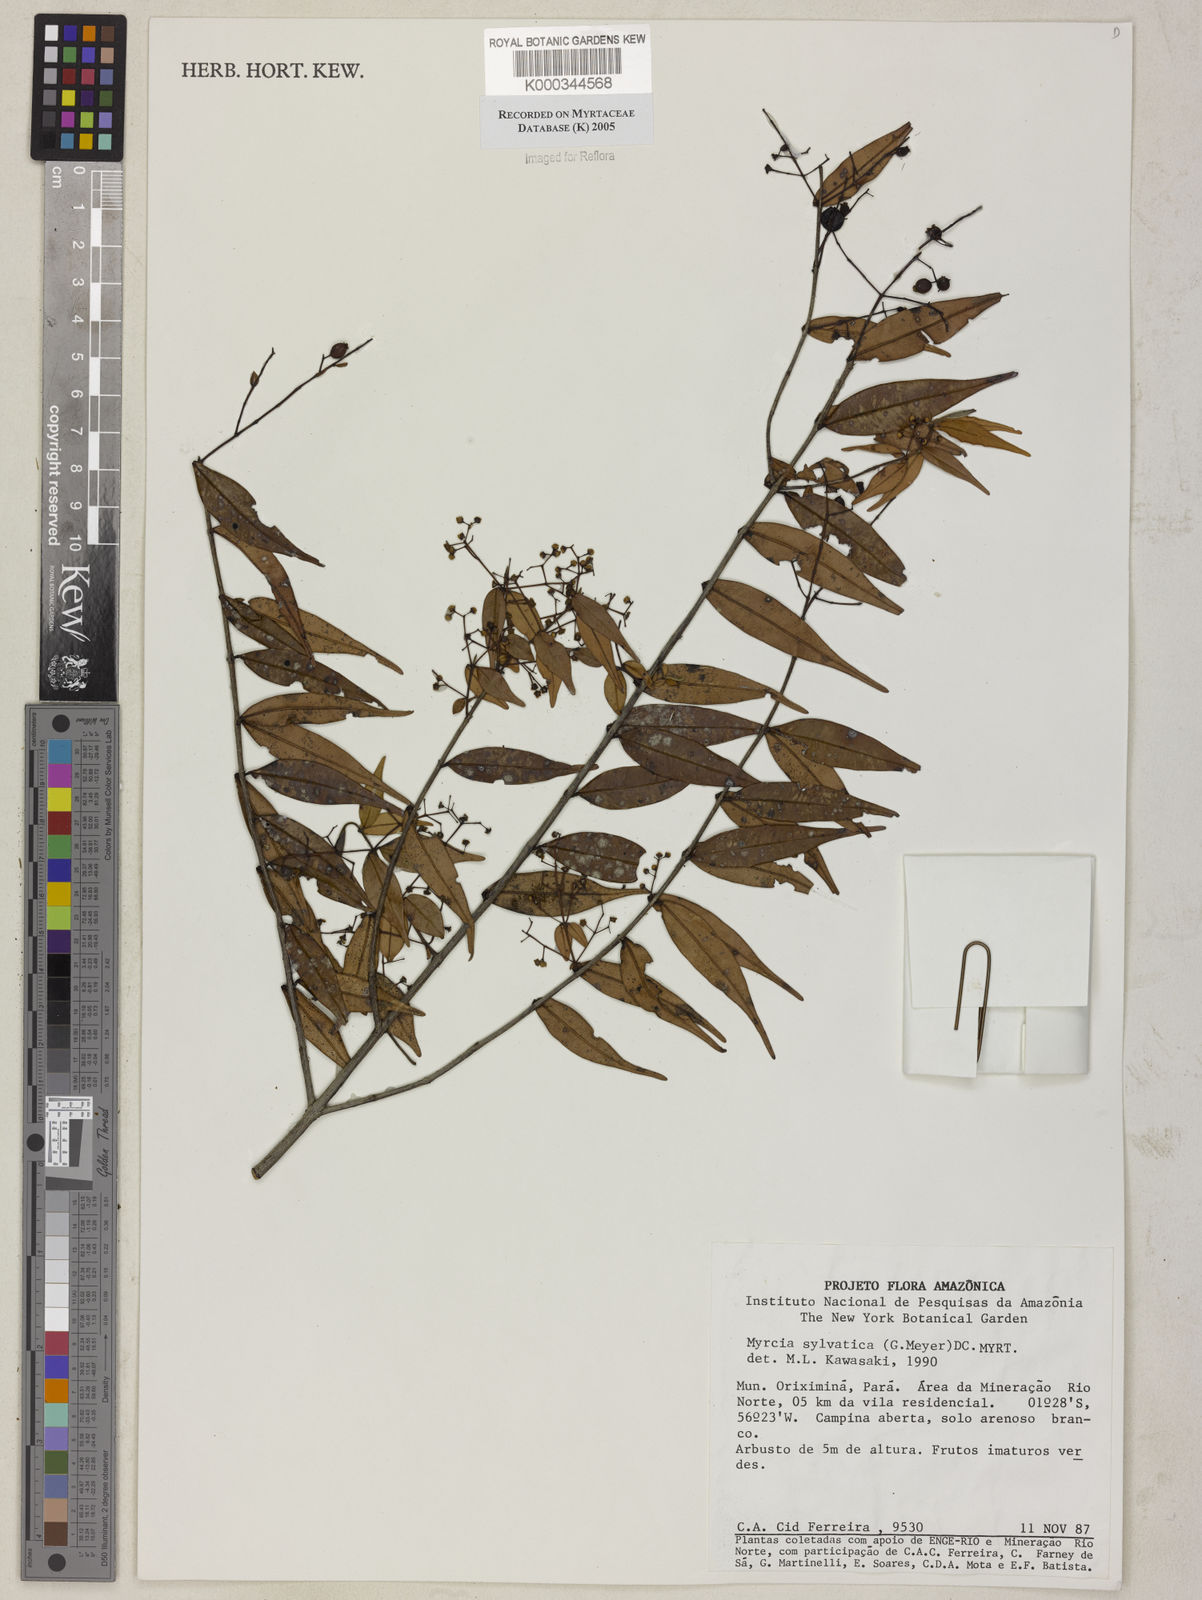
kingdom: Plantae
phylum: Tracheophyta
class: Magnoliopsida
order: Myrtales
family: Myrtaceae
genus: Myrcia
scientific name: Myrcia sylvatica
